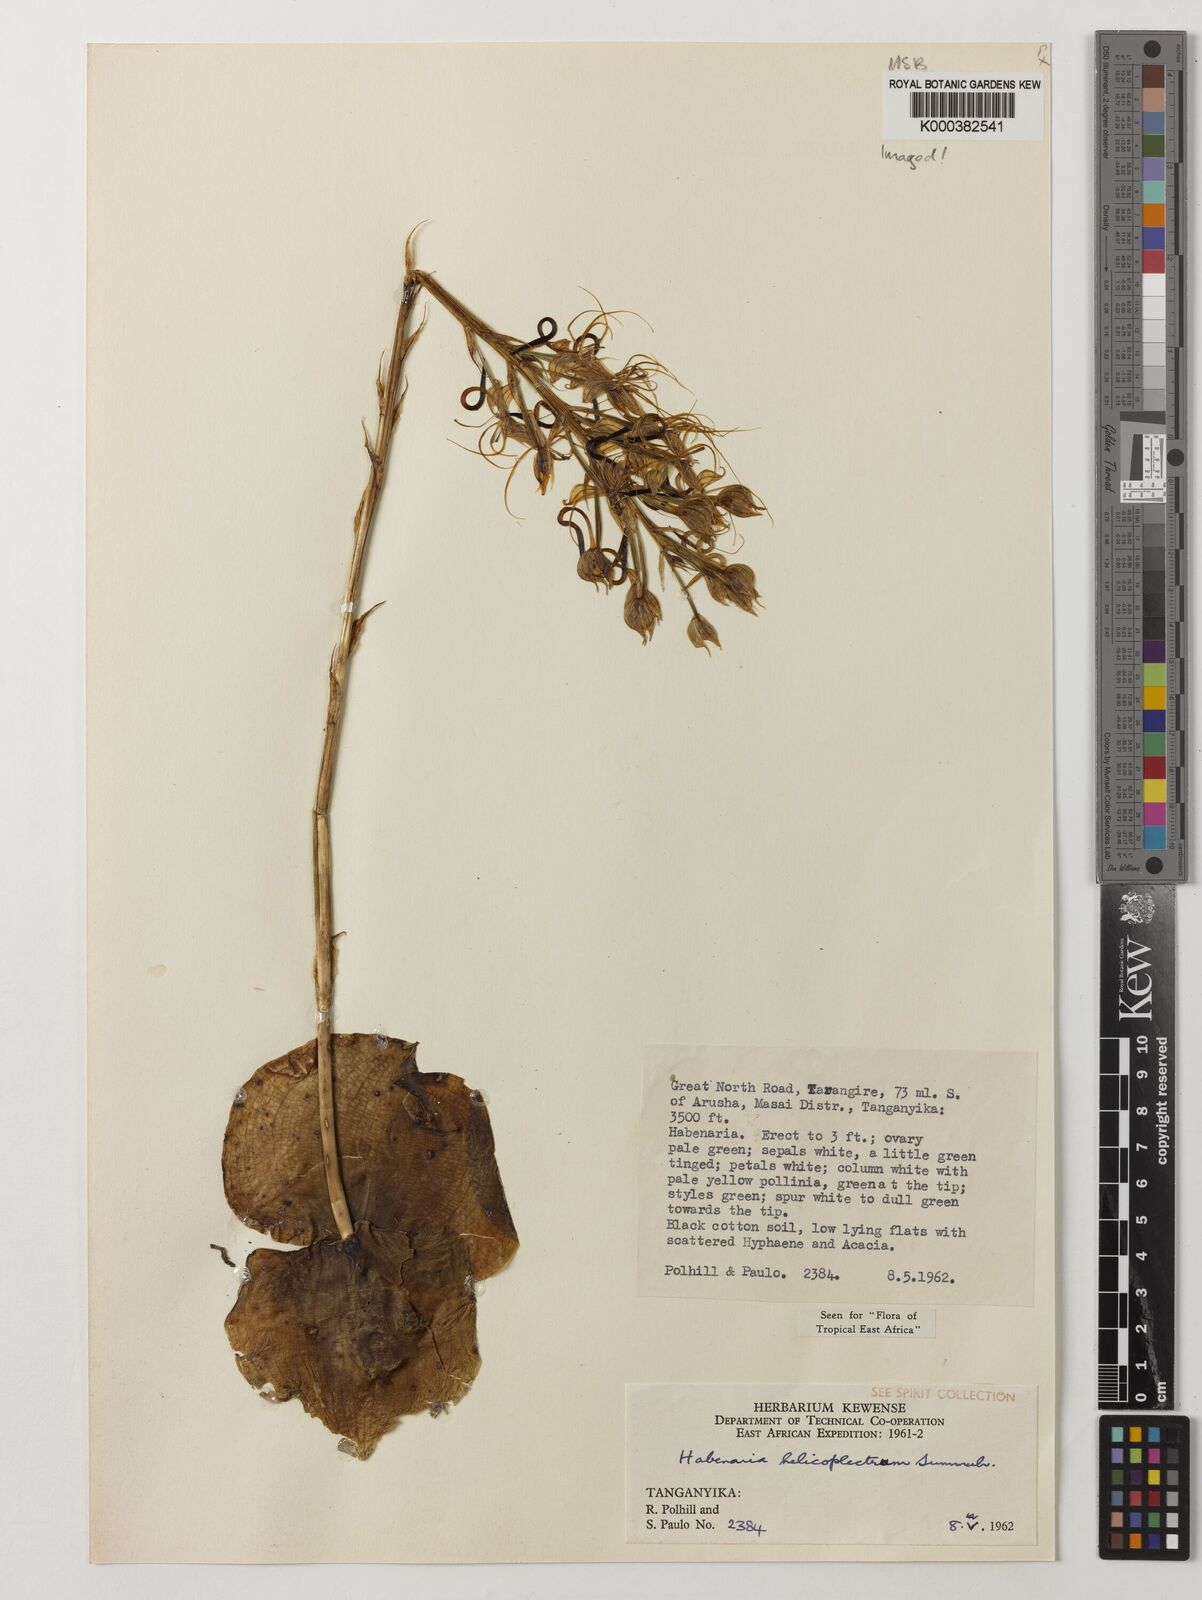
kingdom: Plantae
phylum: Tracheophyta
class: Liliopsida
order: Asparagales
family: Orchidaceae
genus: Habenaria
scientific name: Habenaria helicoplectrum
